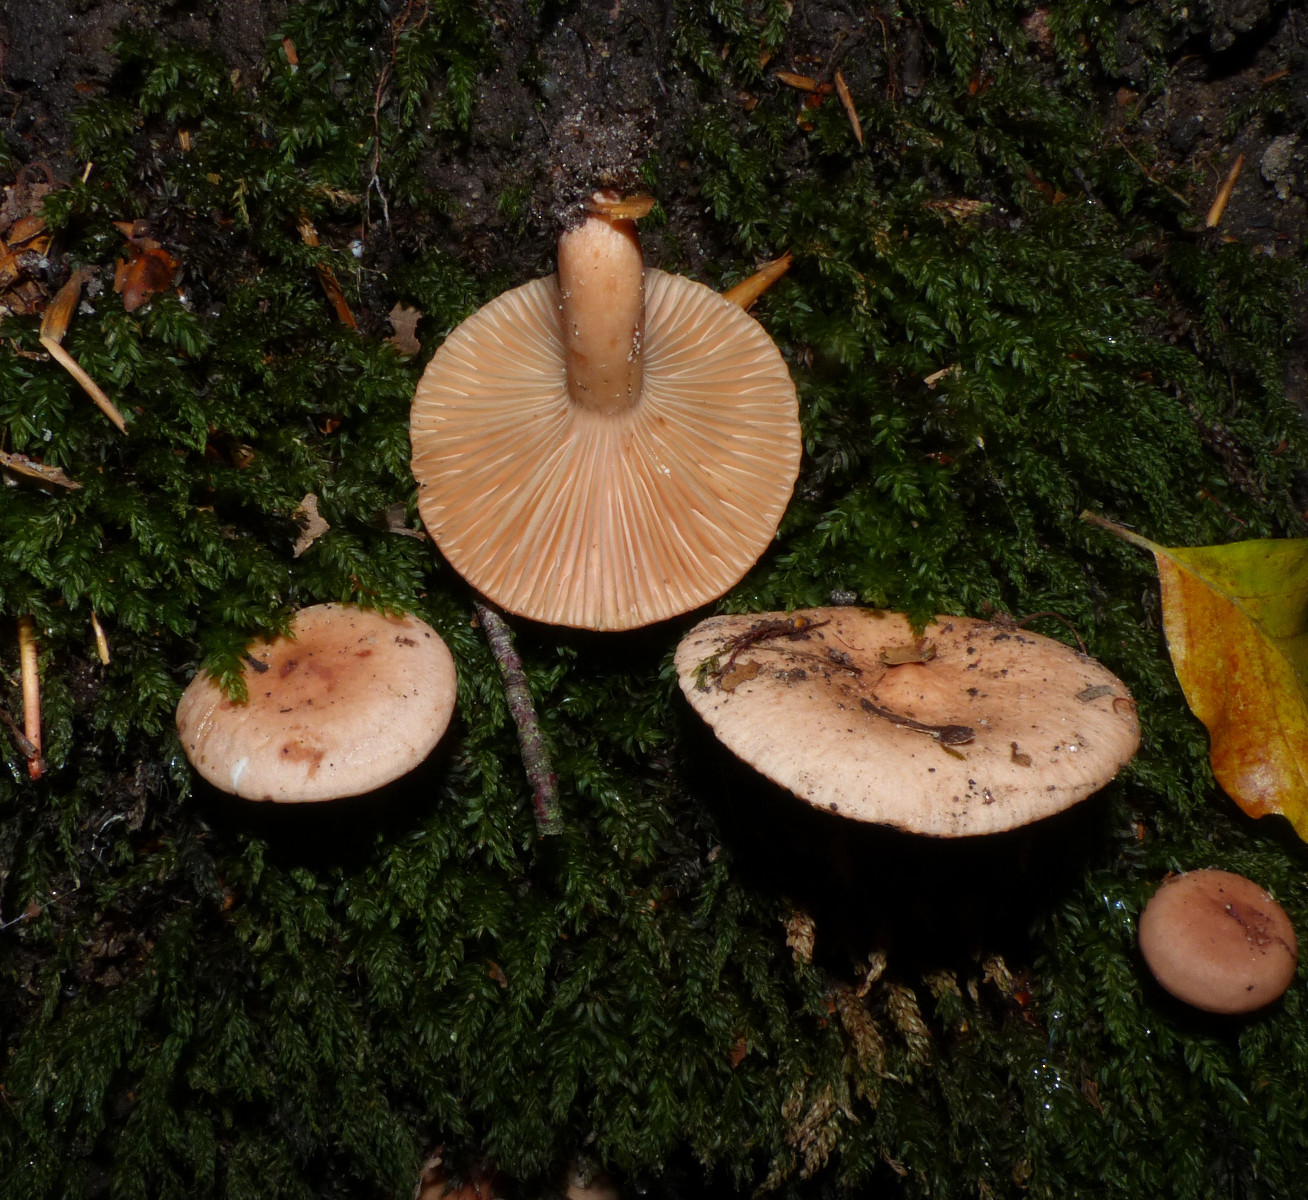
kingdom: Fungi
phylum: Basidiomycota
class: Agaricomycetes
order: Russulales
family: Russulaceae
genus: Lactarius
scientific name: Lactarius subdulcis
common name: sødlig mælkehat
